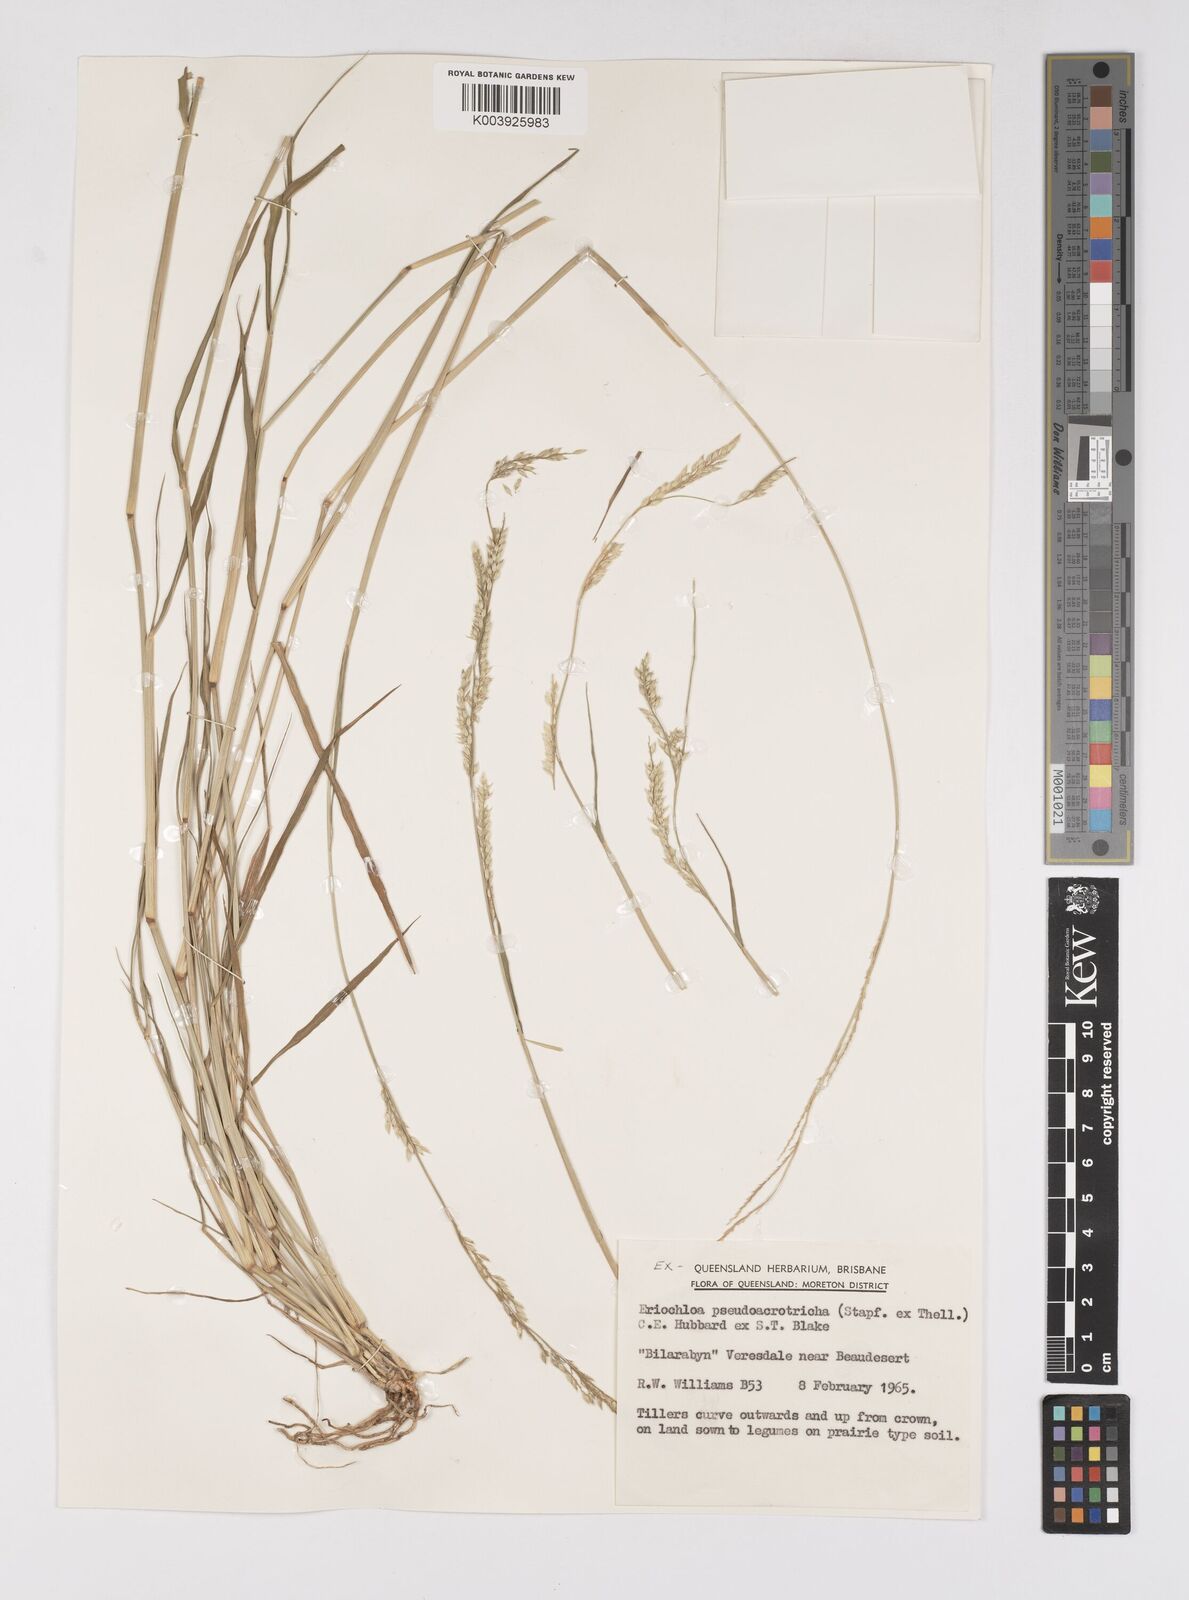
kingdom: Plantae
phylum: Tracheophyta
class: Liliopsida
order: Poales
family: Poaceae
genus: Eriochloa
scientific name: Eriochloa pseudoacrotricha
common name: Perennial cup-grass
